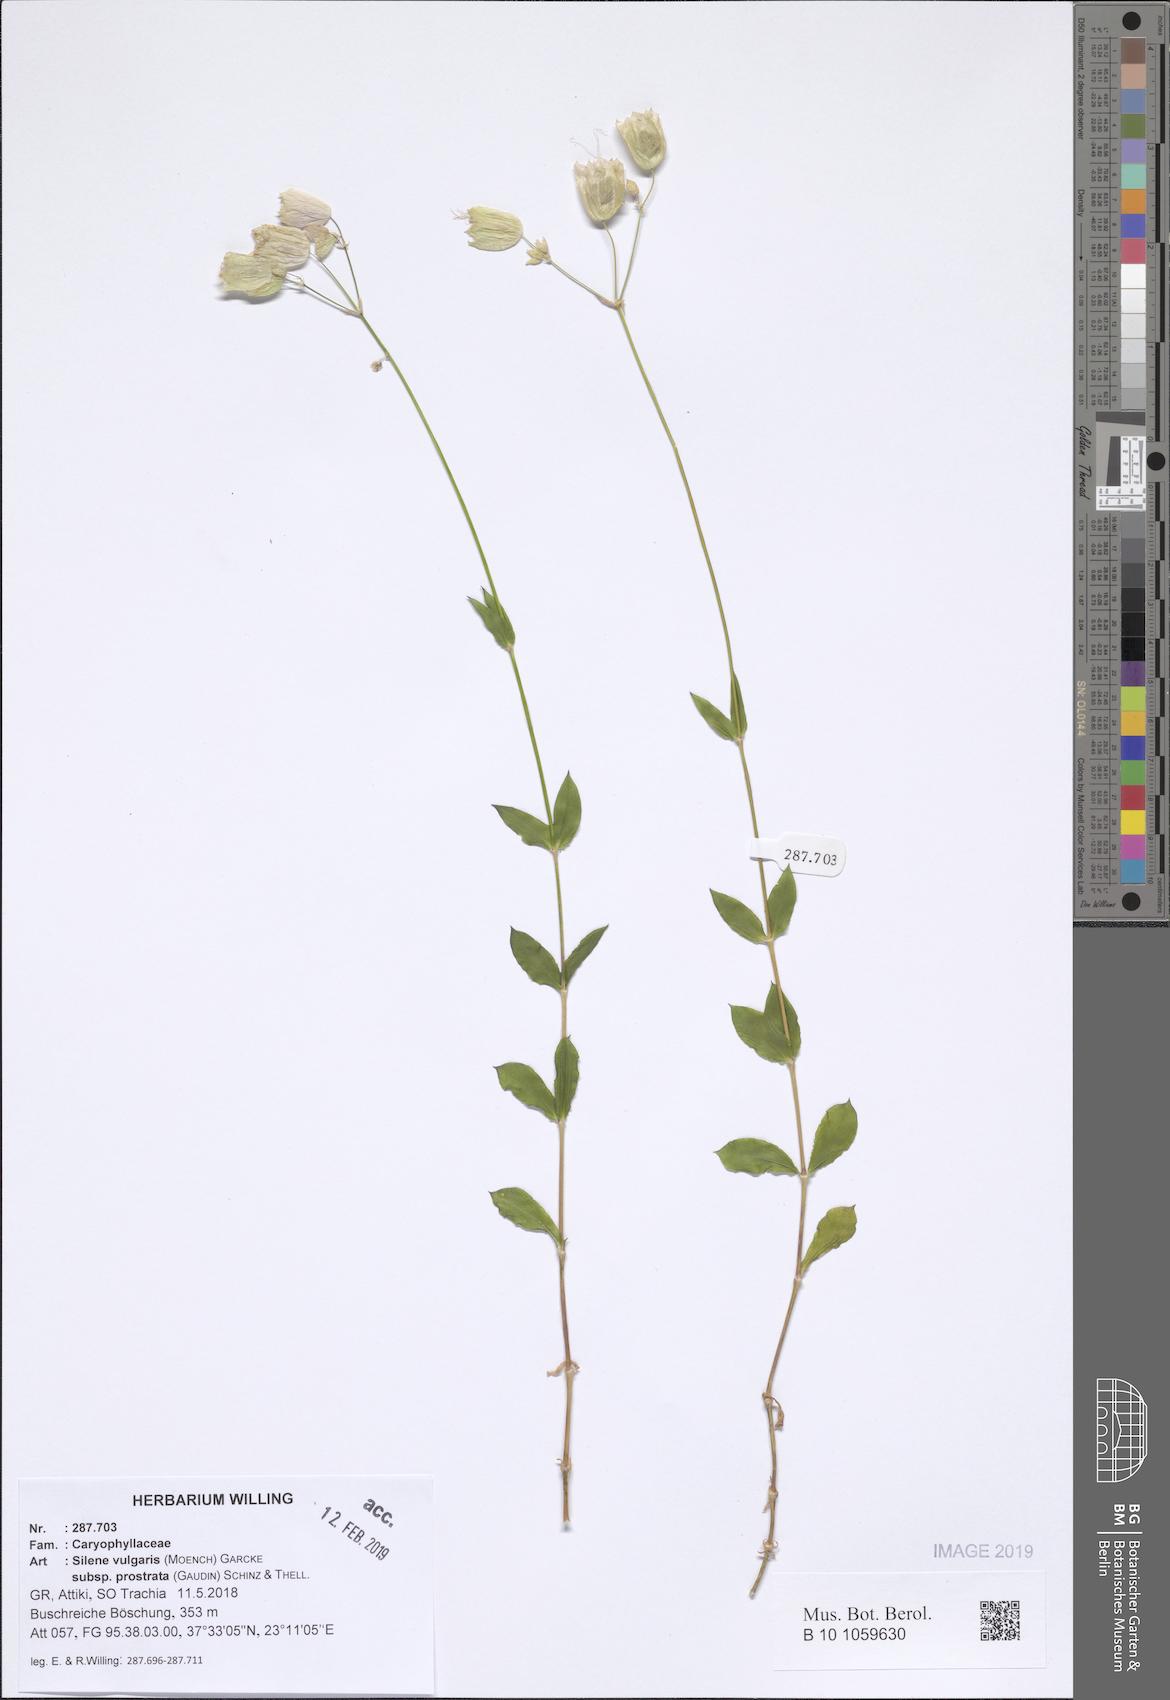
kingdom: Plantae
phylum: Tracheophyta
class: Magnoliopsida
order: Caryophyllales
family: Caryophyllaceae
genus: Silene
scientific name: Silene glareosa
